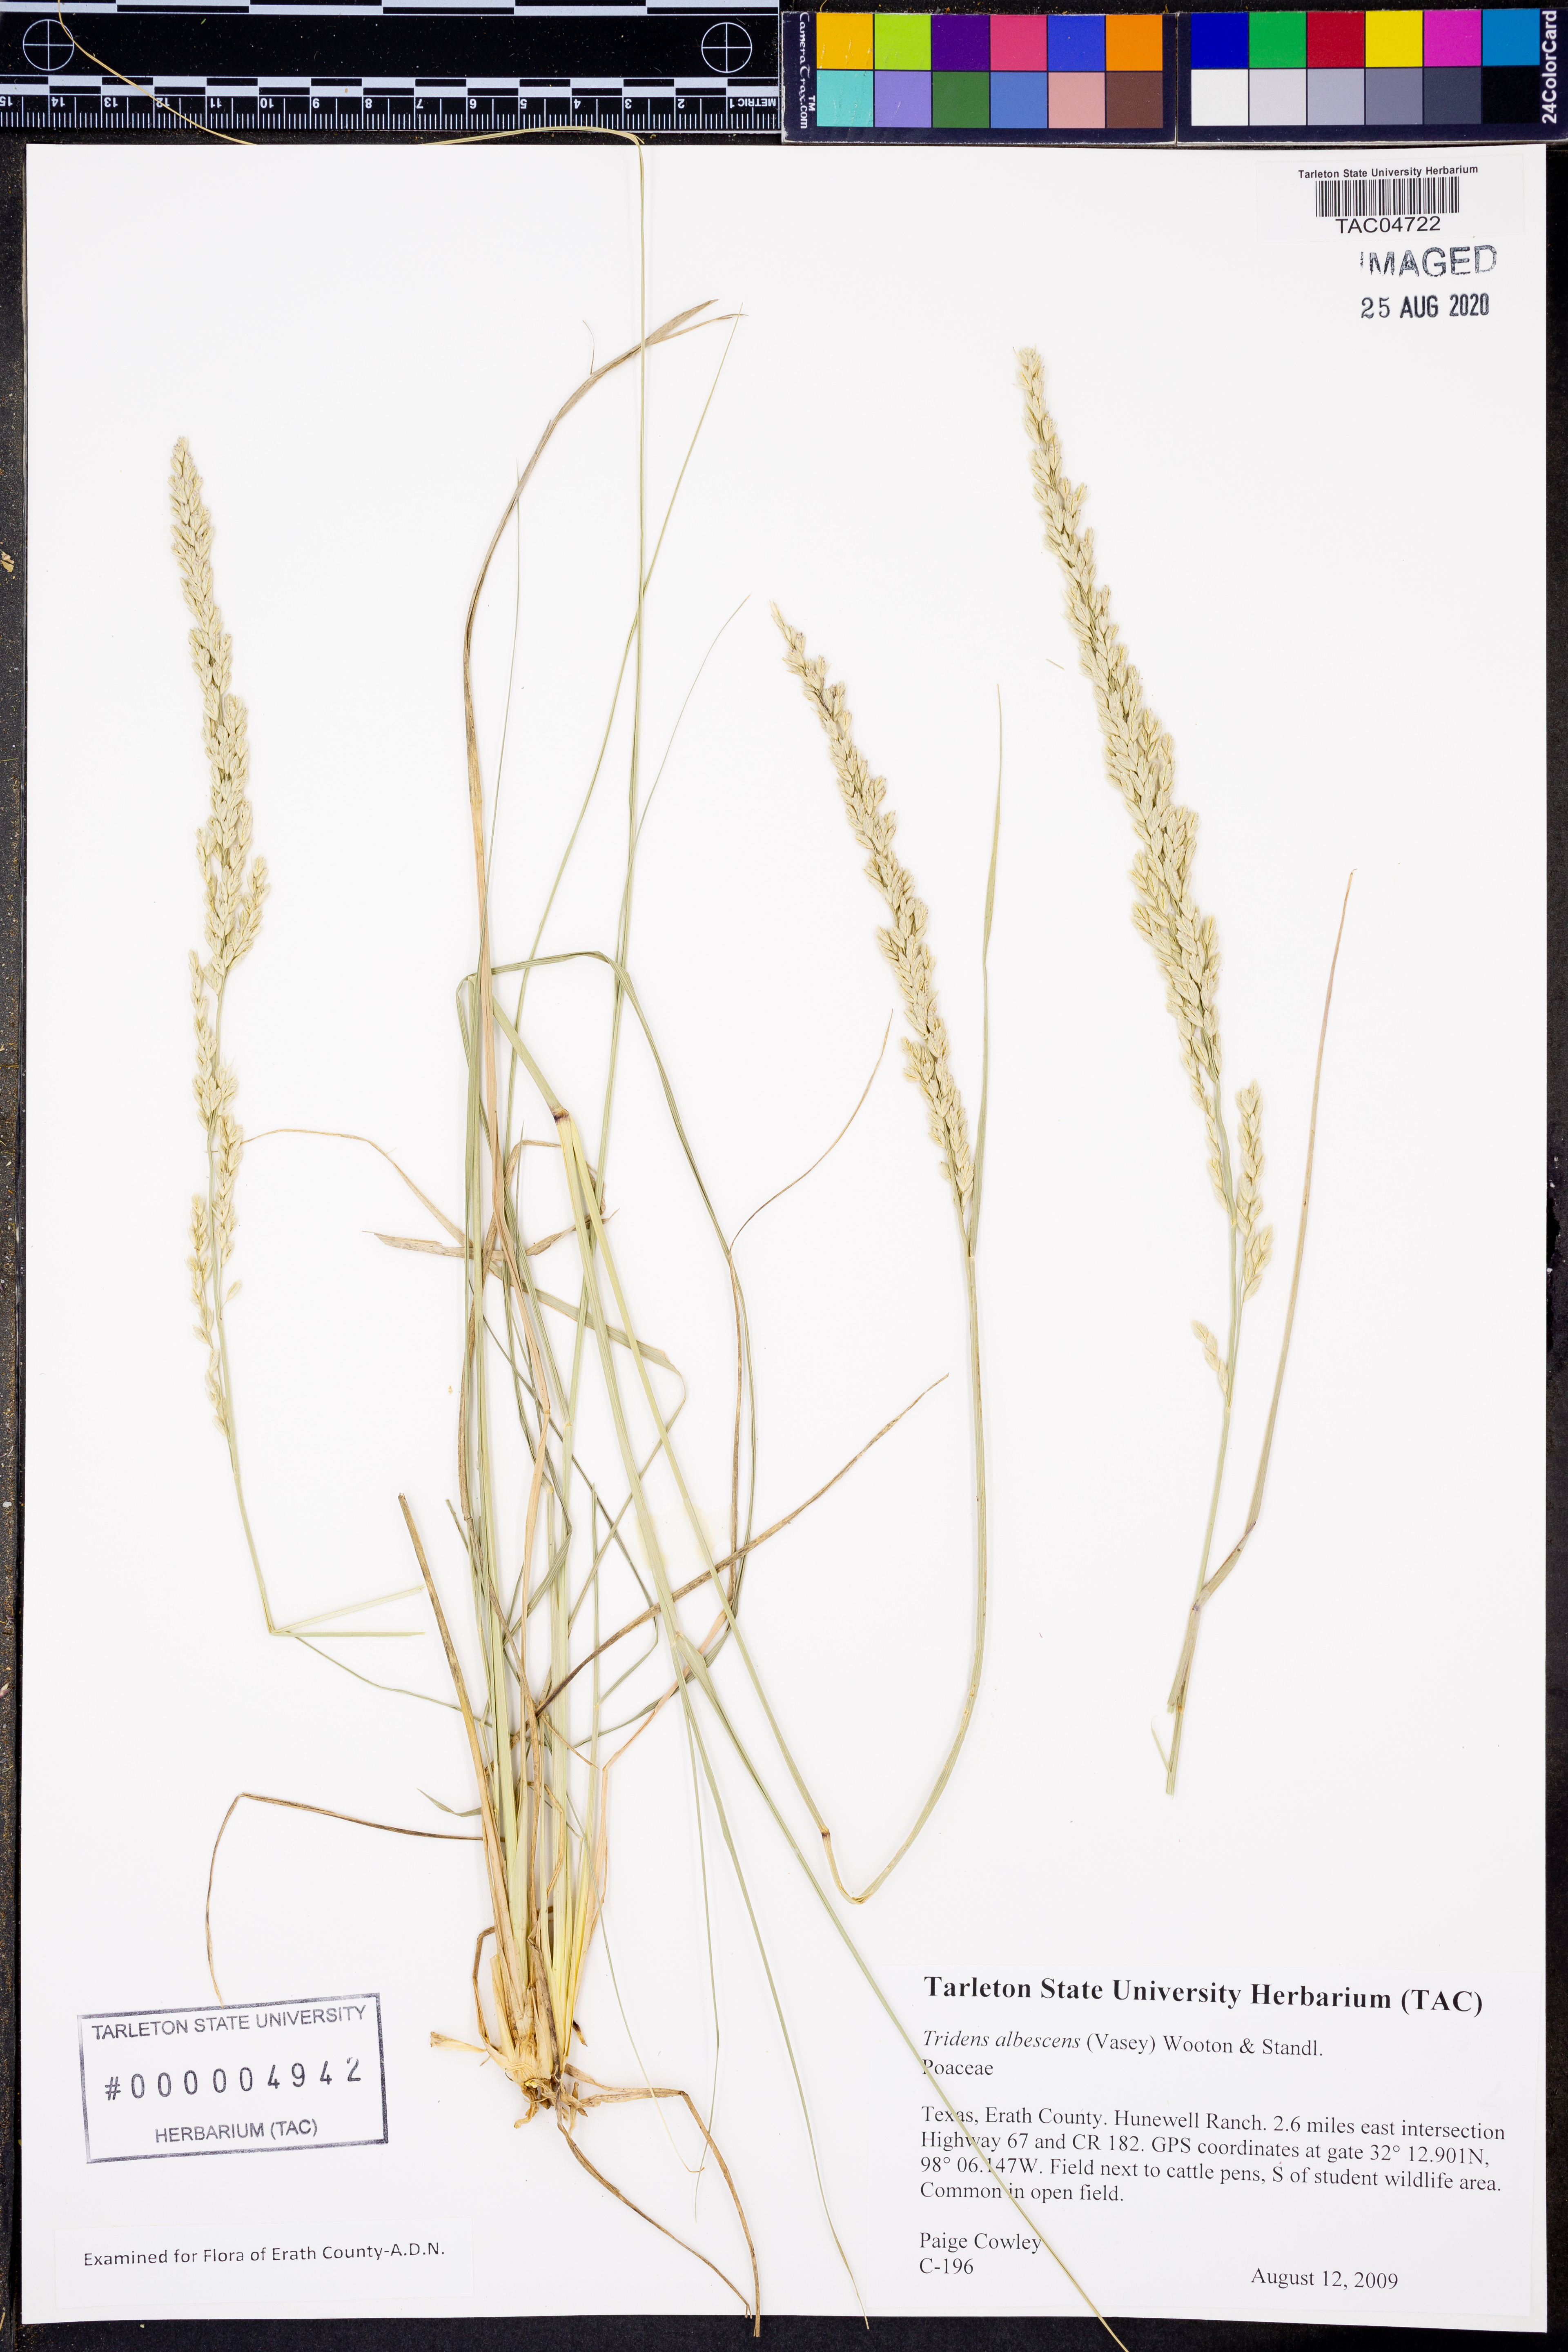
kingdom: Plantae
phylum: Tracheophyta
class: Liliopsida
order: Poales
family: Poaceae
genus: Tridens
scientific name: Tridens albescens
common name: White tridens
